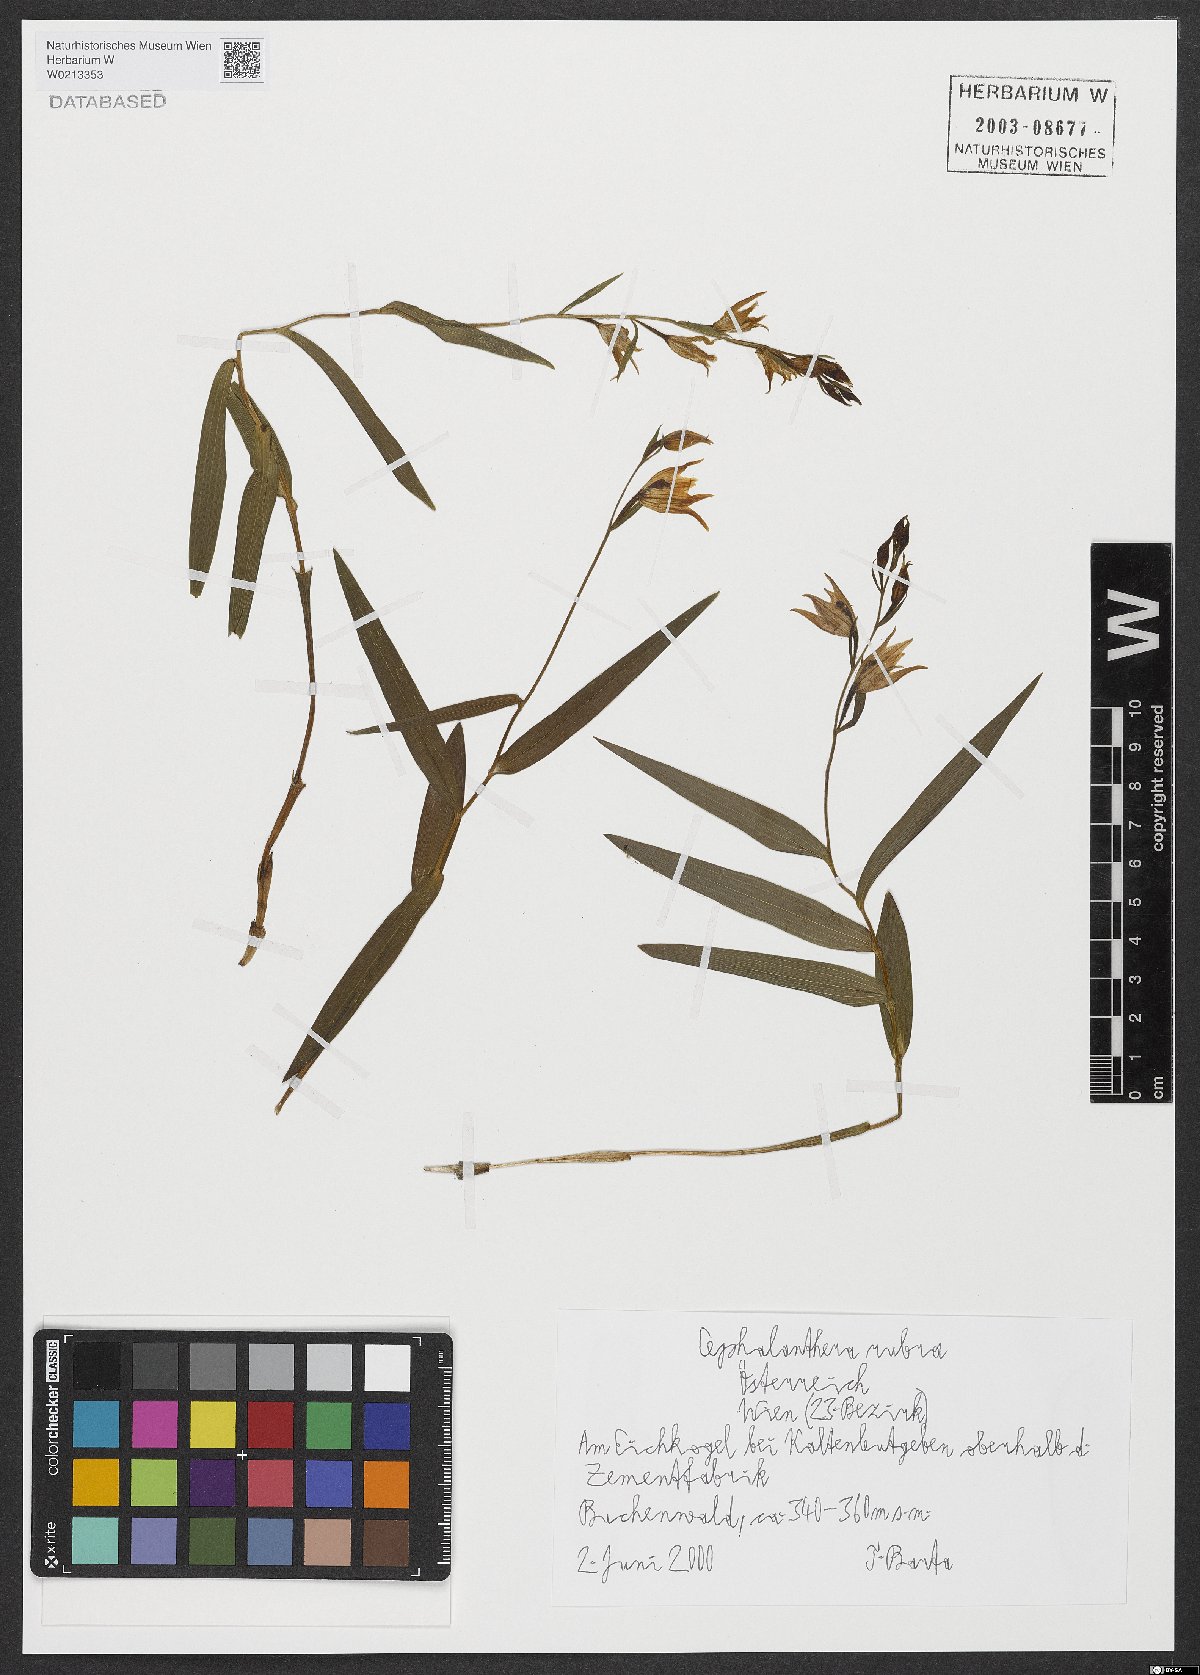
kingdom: Plantae
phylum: Tracheophyta
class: Liliopsida
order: Asparagales
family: Orchidaceae
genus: Cephalanthera
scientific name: Cephalanthera rubra
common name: Red helleborine
